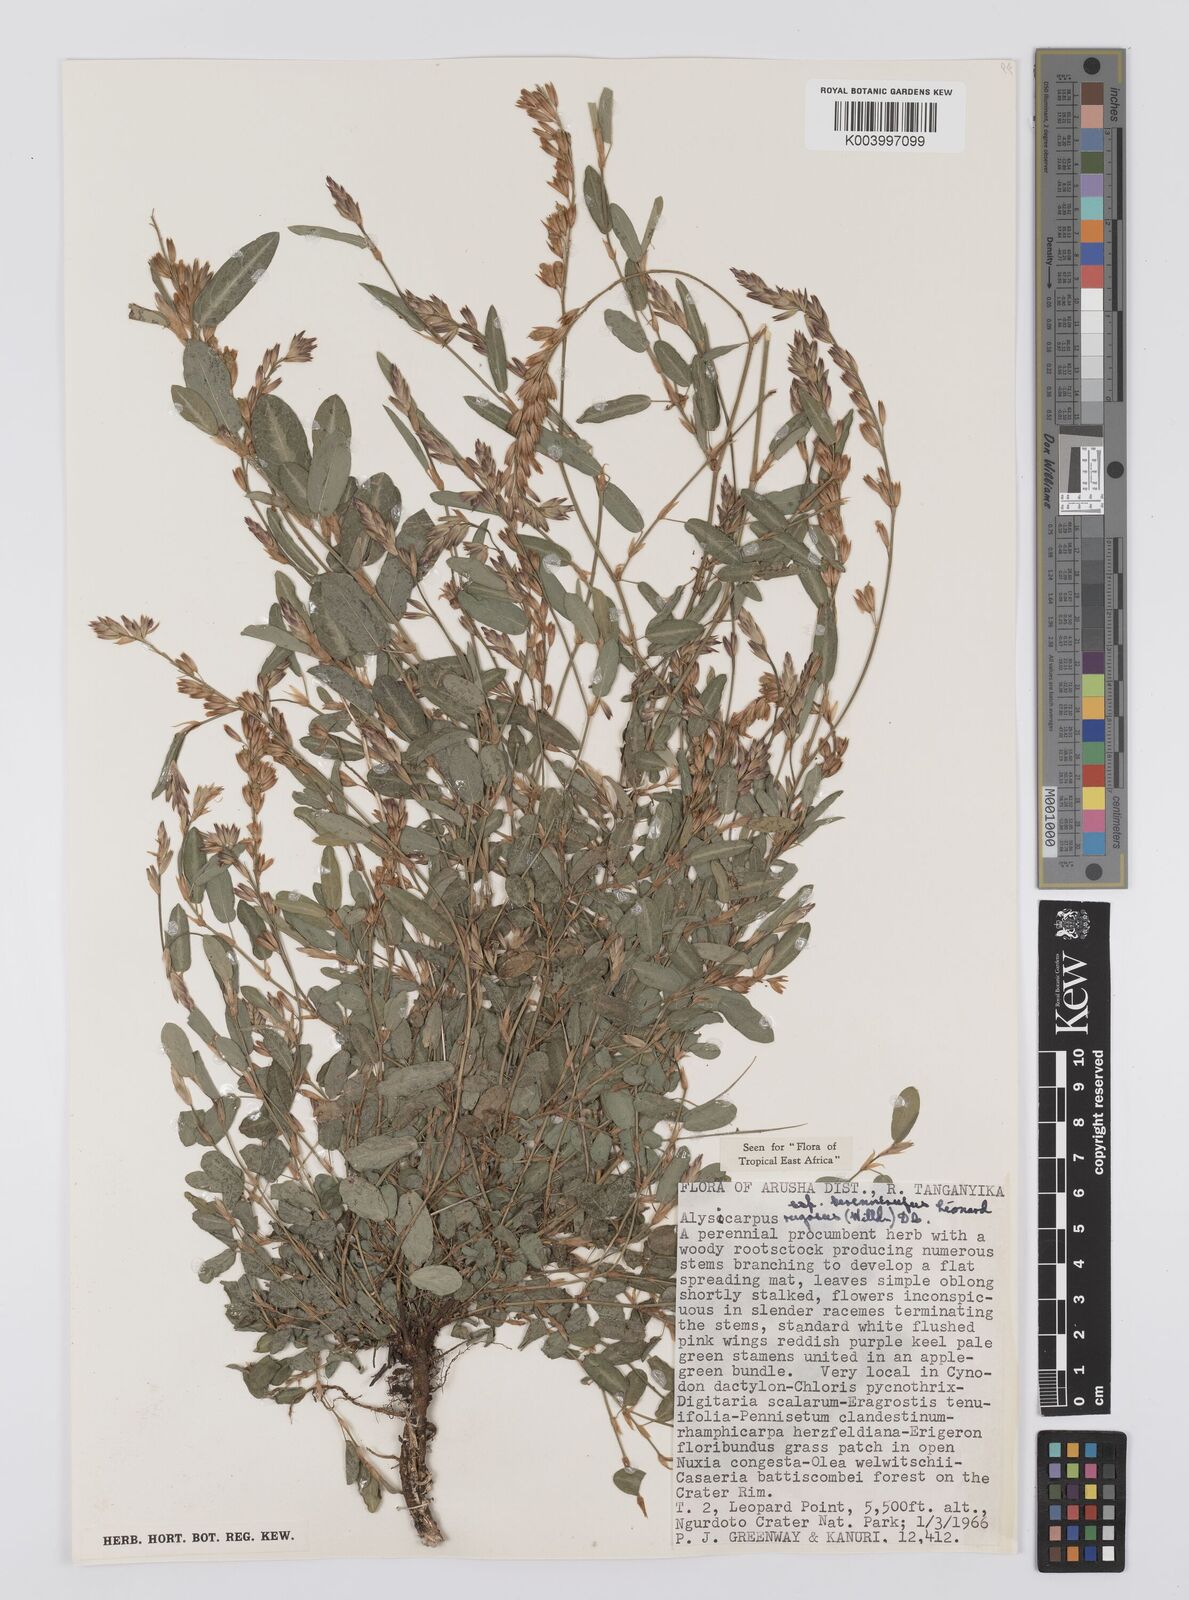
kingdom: Plantae
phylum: Tracheophyta
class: Magnoliopsida
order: Fabales
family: Fabaceae
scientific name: Fabaceae
